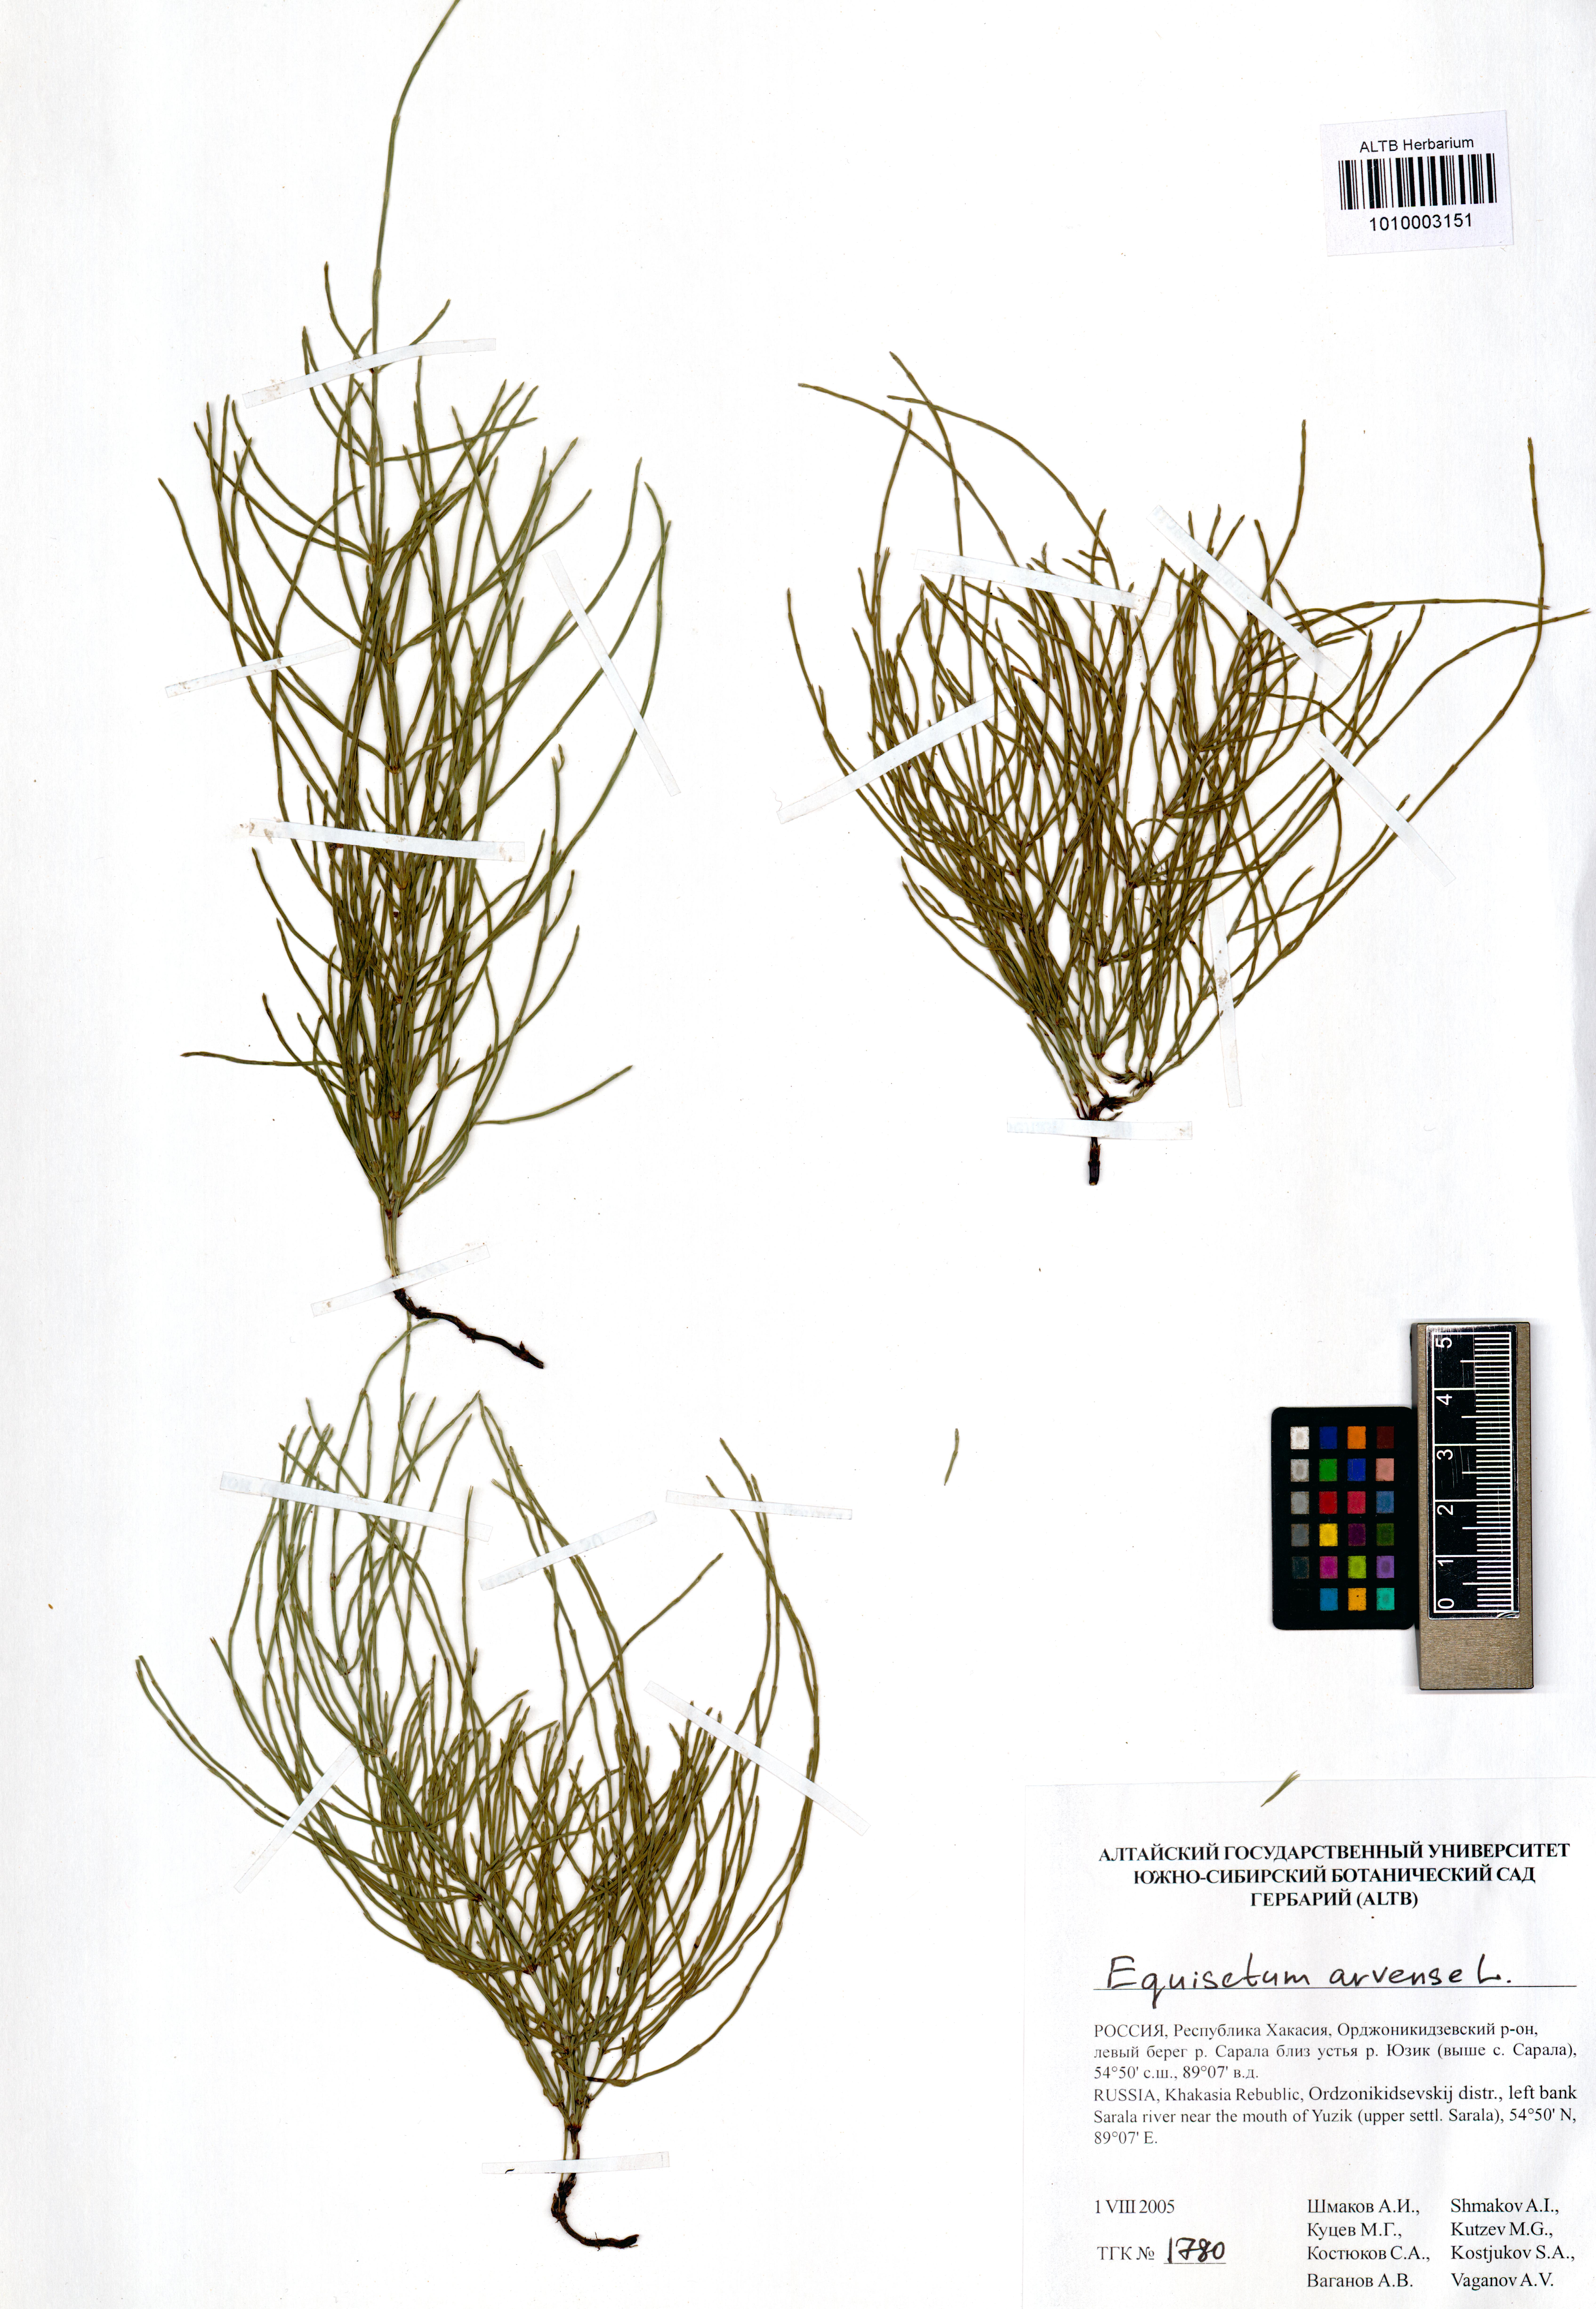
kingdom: Plantae
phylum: Tracheophyta
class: Polypodiopsida
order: Equisetales
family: Equisetaceae
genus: Equisetum
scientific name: Equisetum arvense
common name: Field horsetail
